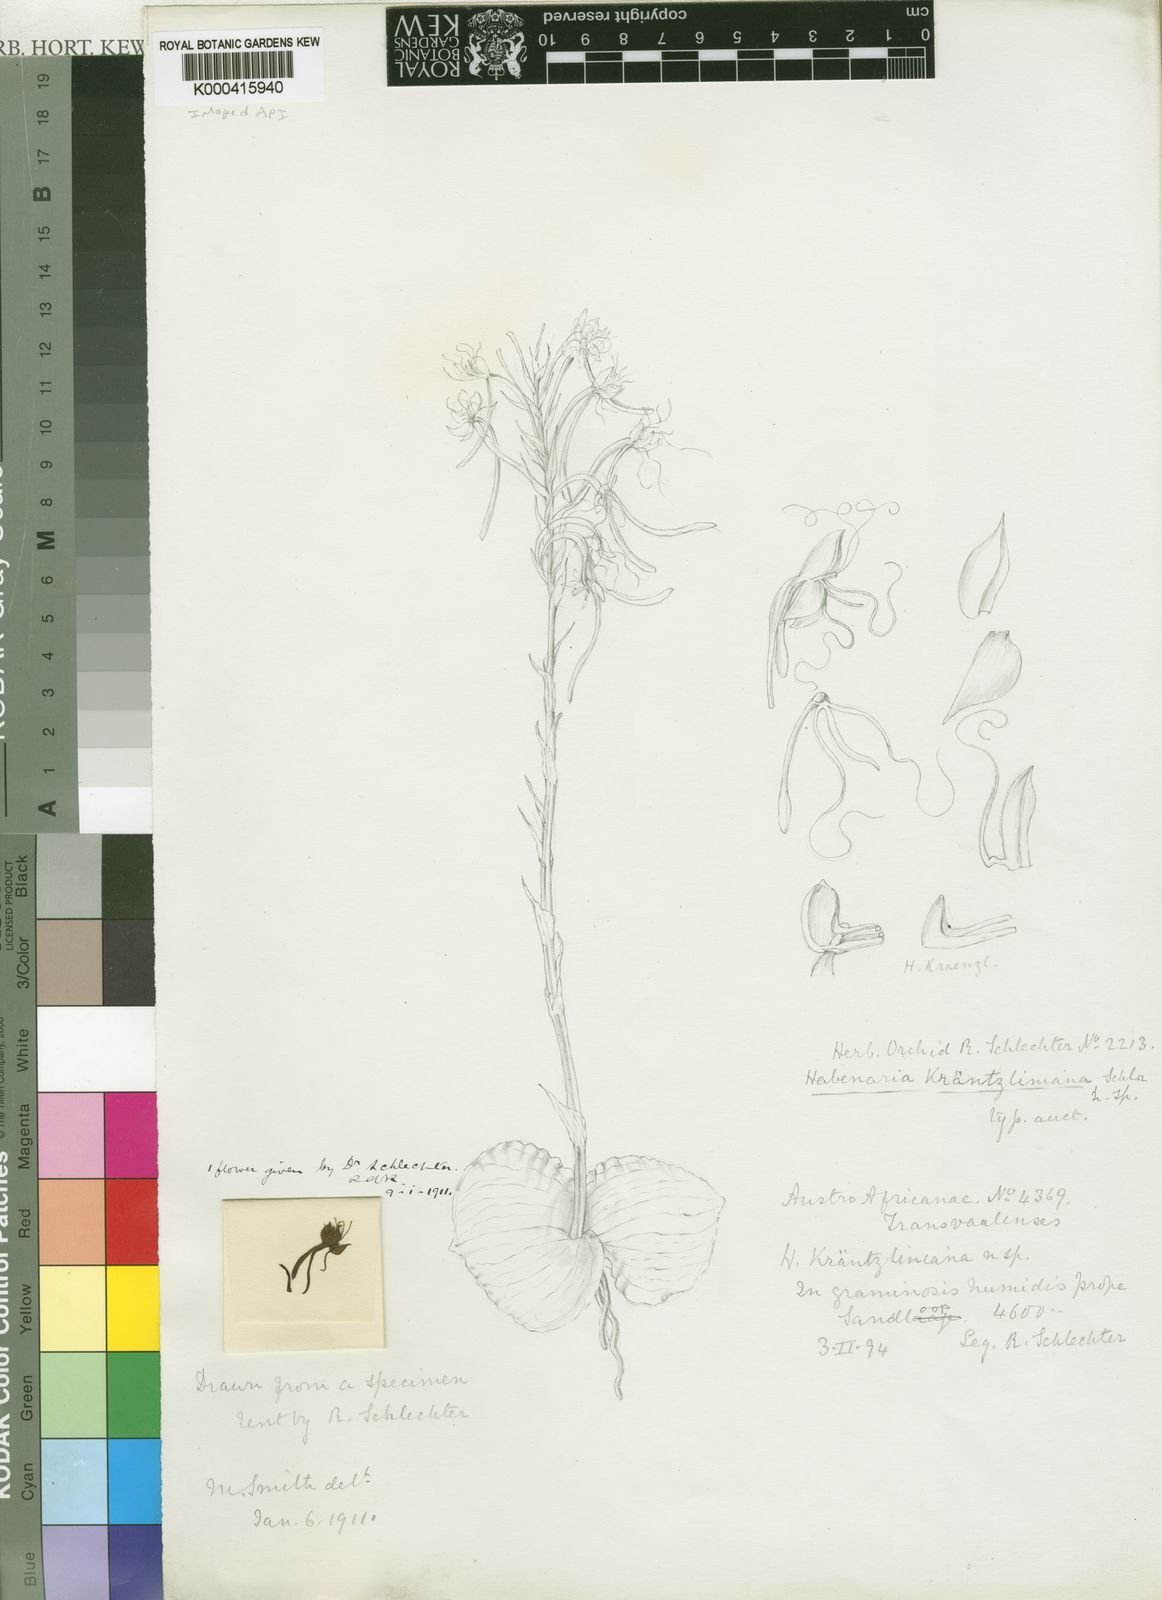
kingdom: Plantae
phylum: Tracheophyta
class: Liliopsida
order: Asparagales
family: Orchidaceae
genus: Habenaria
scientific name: Habenaria
